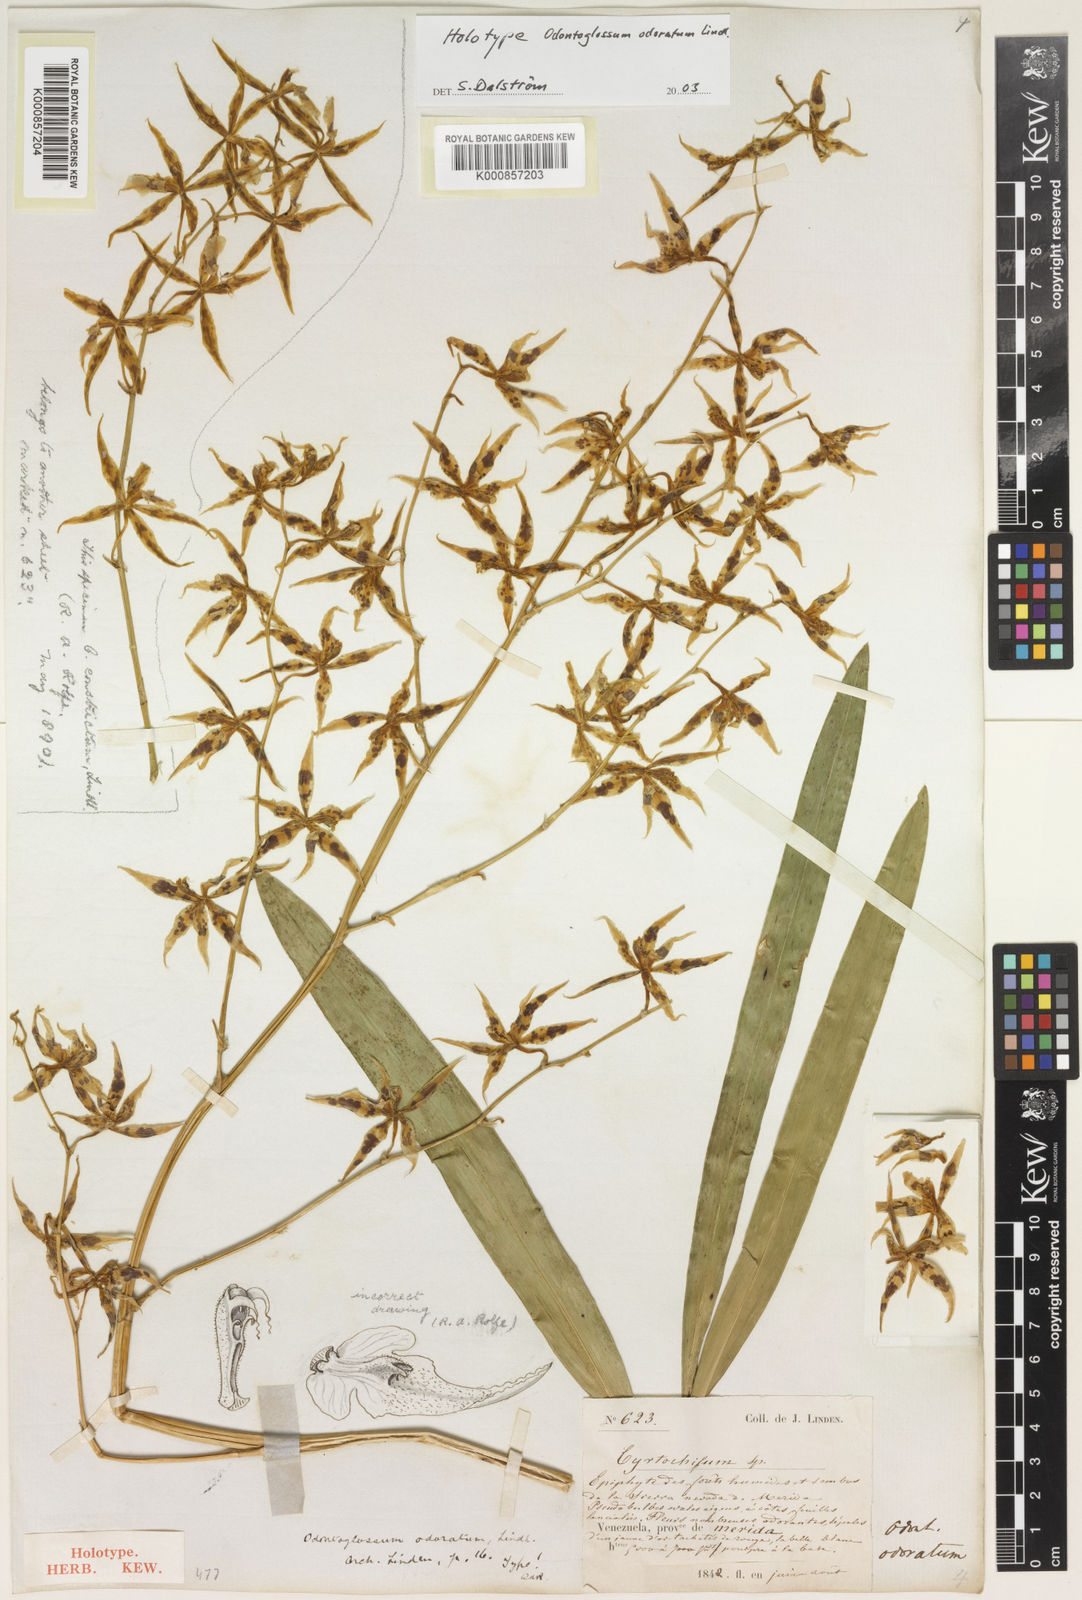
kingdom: Plantae
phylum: Tracheophyta
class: Liliopsida
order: Asparagales
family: Orchidaceae
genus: Oncidium
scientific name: Oncidium odoratum
